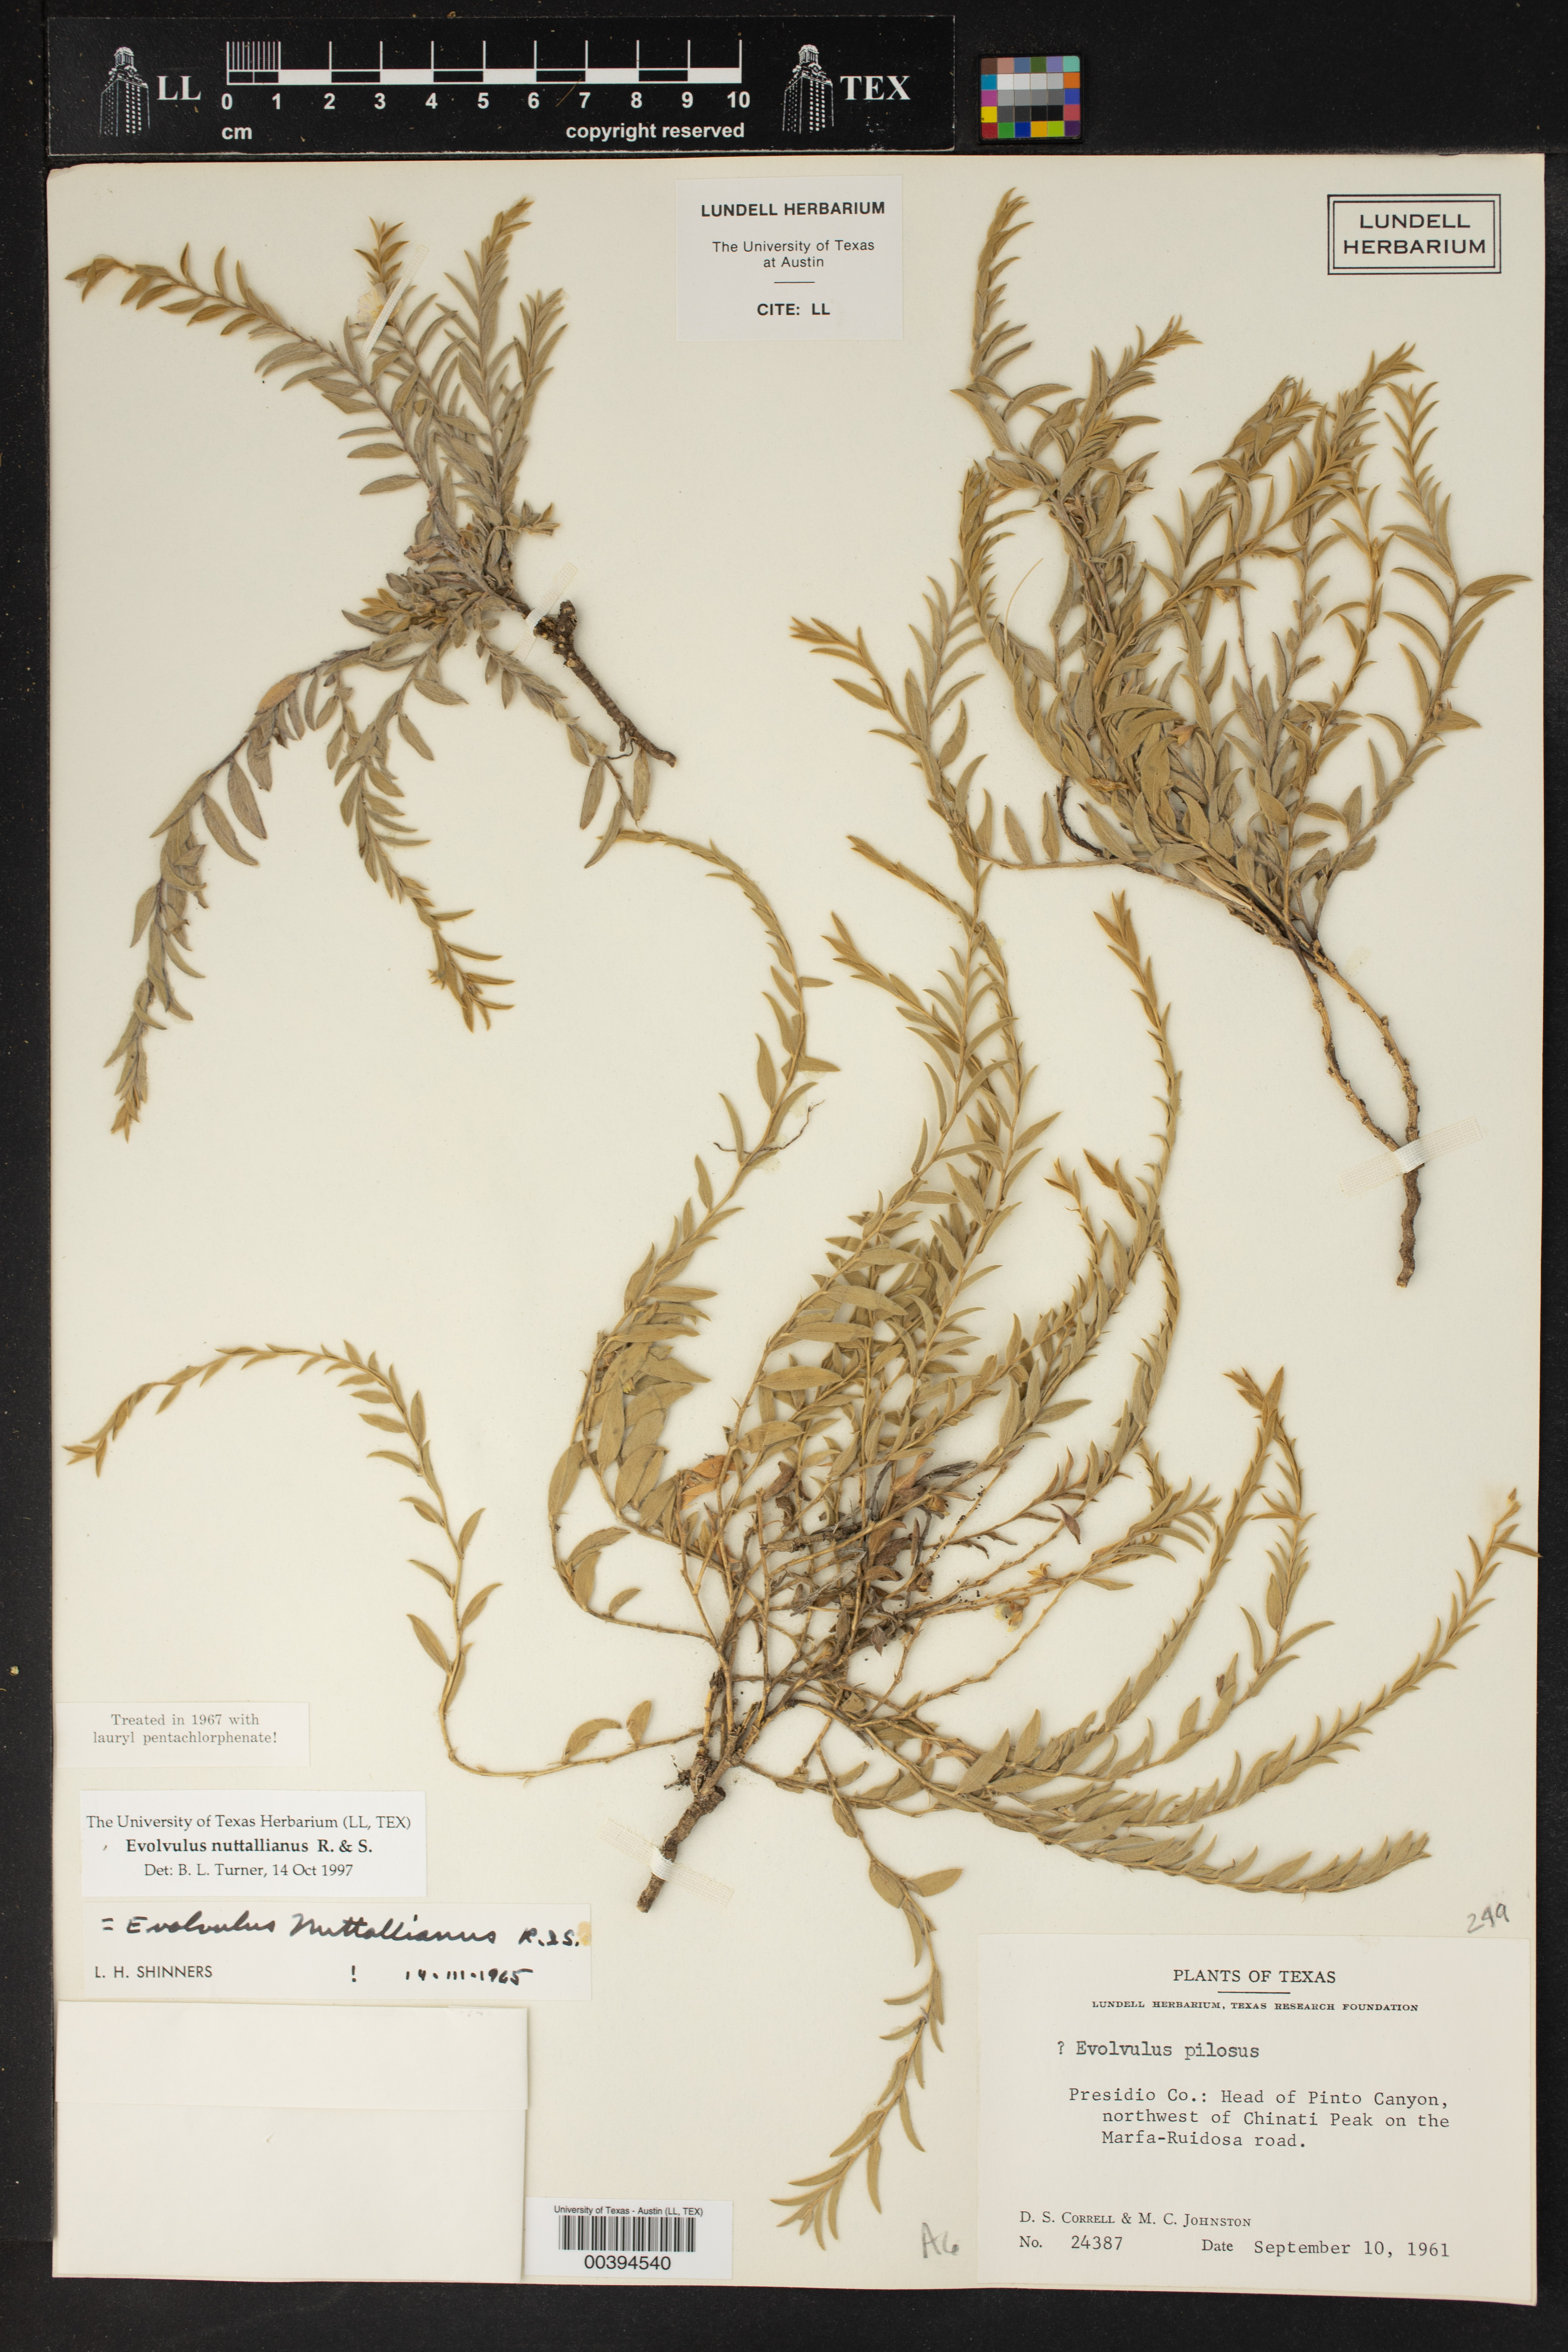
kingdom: Plantae
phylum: Tracheophyta
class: Magnoliopsida
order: Solanales
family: Convolvulaceae
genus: Evolvulus
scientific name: Evolvulus nuttallianus
